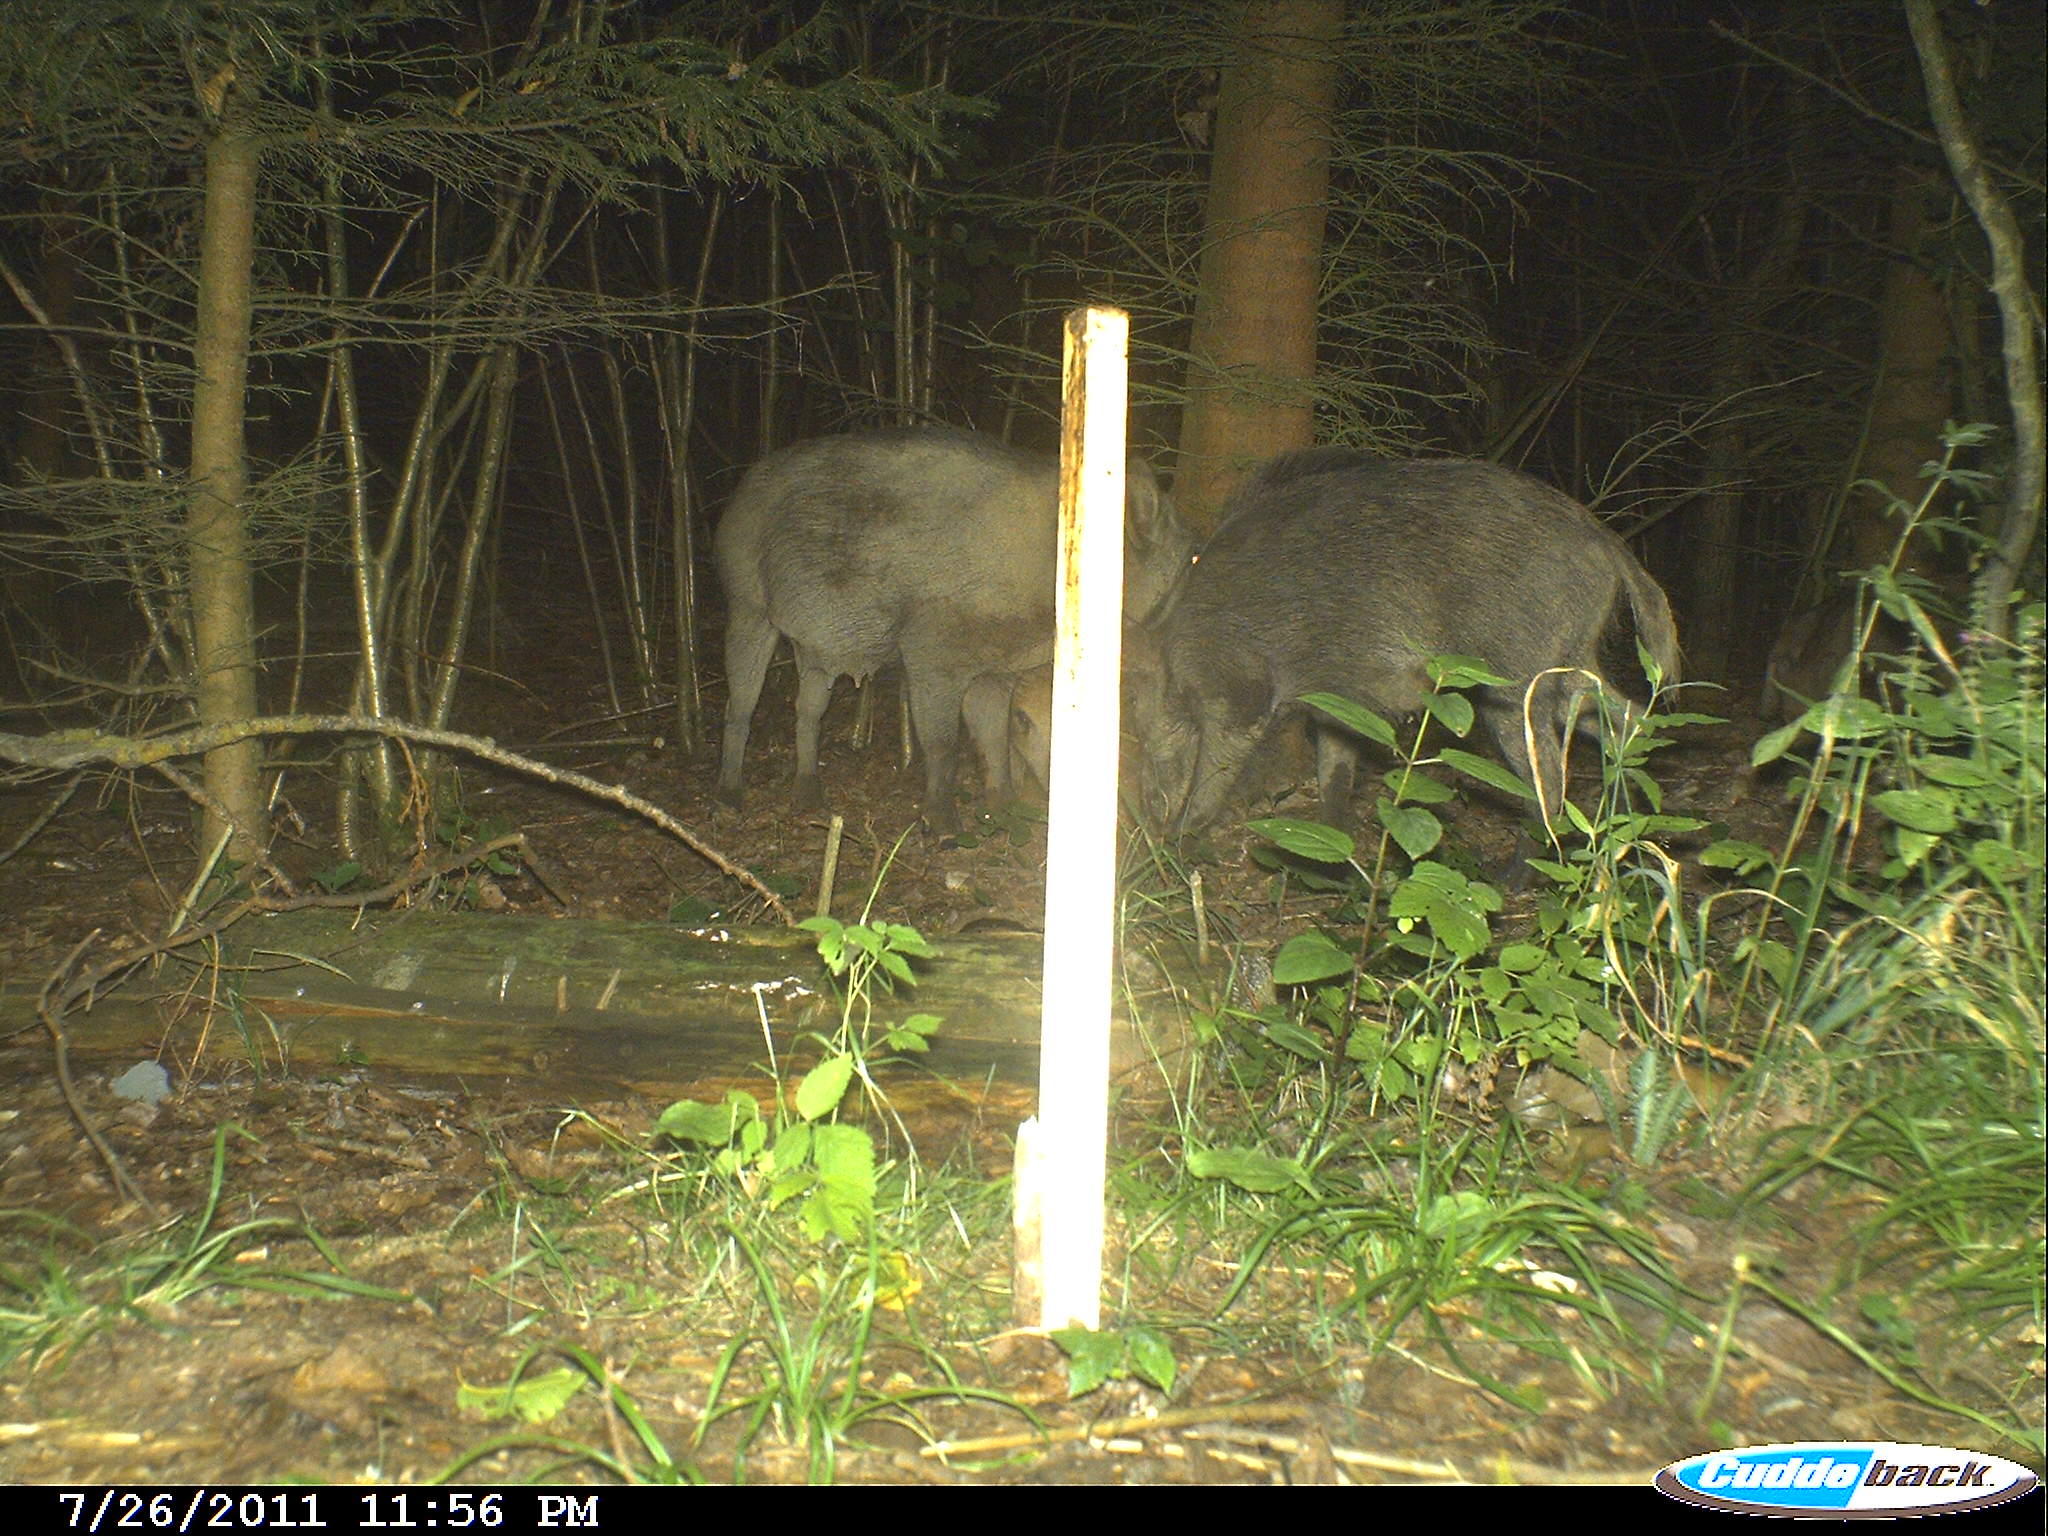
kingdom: Animalia
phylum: Chordata
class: Mammalia
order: Artiodactyla
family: Suidae
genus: Sus
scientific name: Sus scrofa
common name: Wild boar
